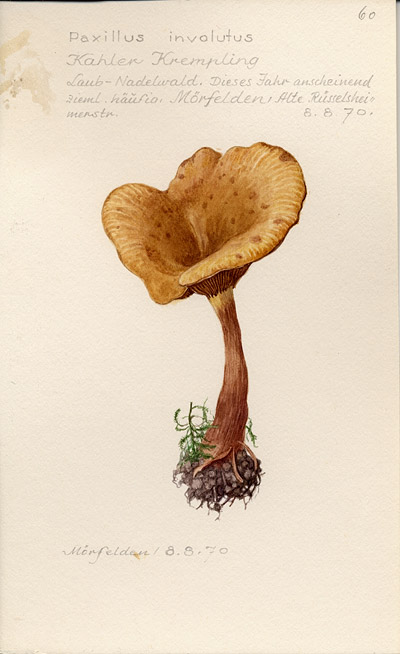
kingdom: Fungi
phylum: Basidiomycota
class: Agaricomycetes
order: Boletales
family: Paxillaceae
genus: Paxillus
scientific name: Paxillus involutus
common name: Brown roll rim
